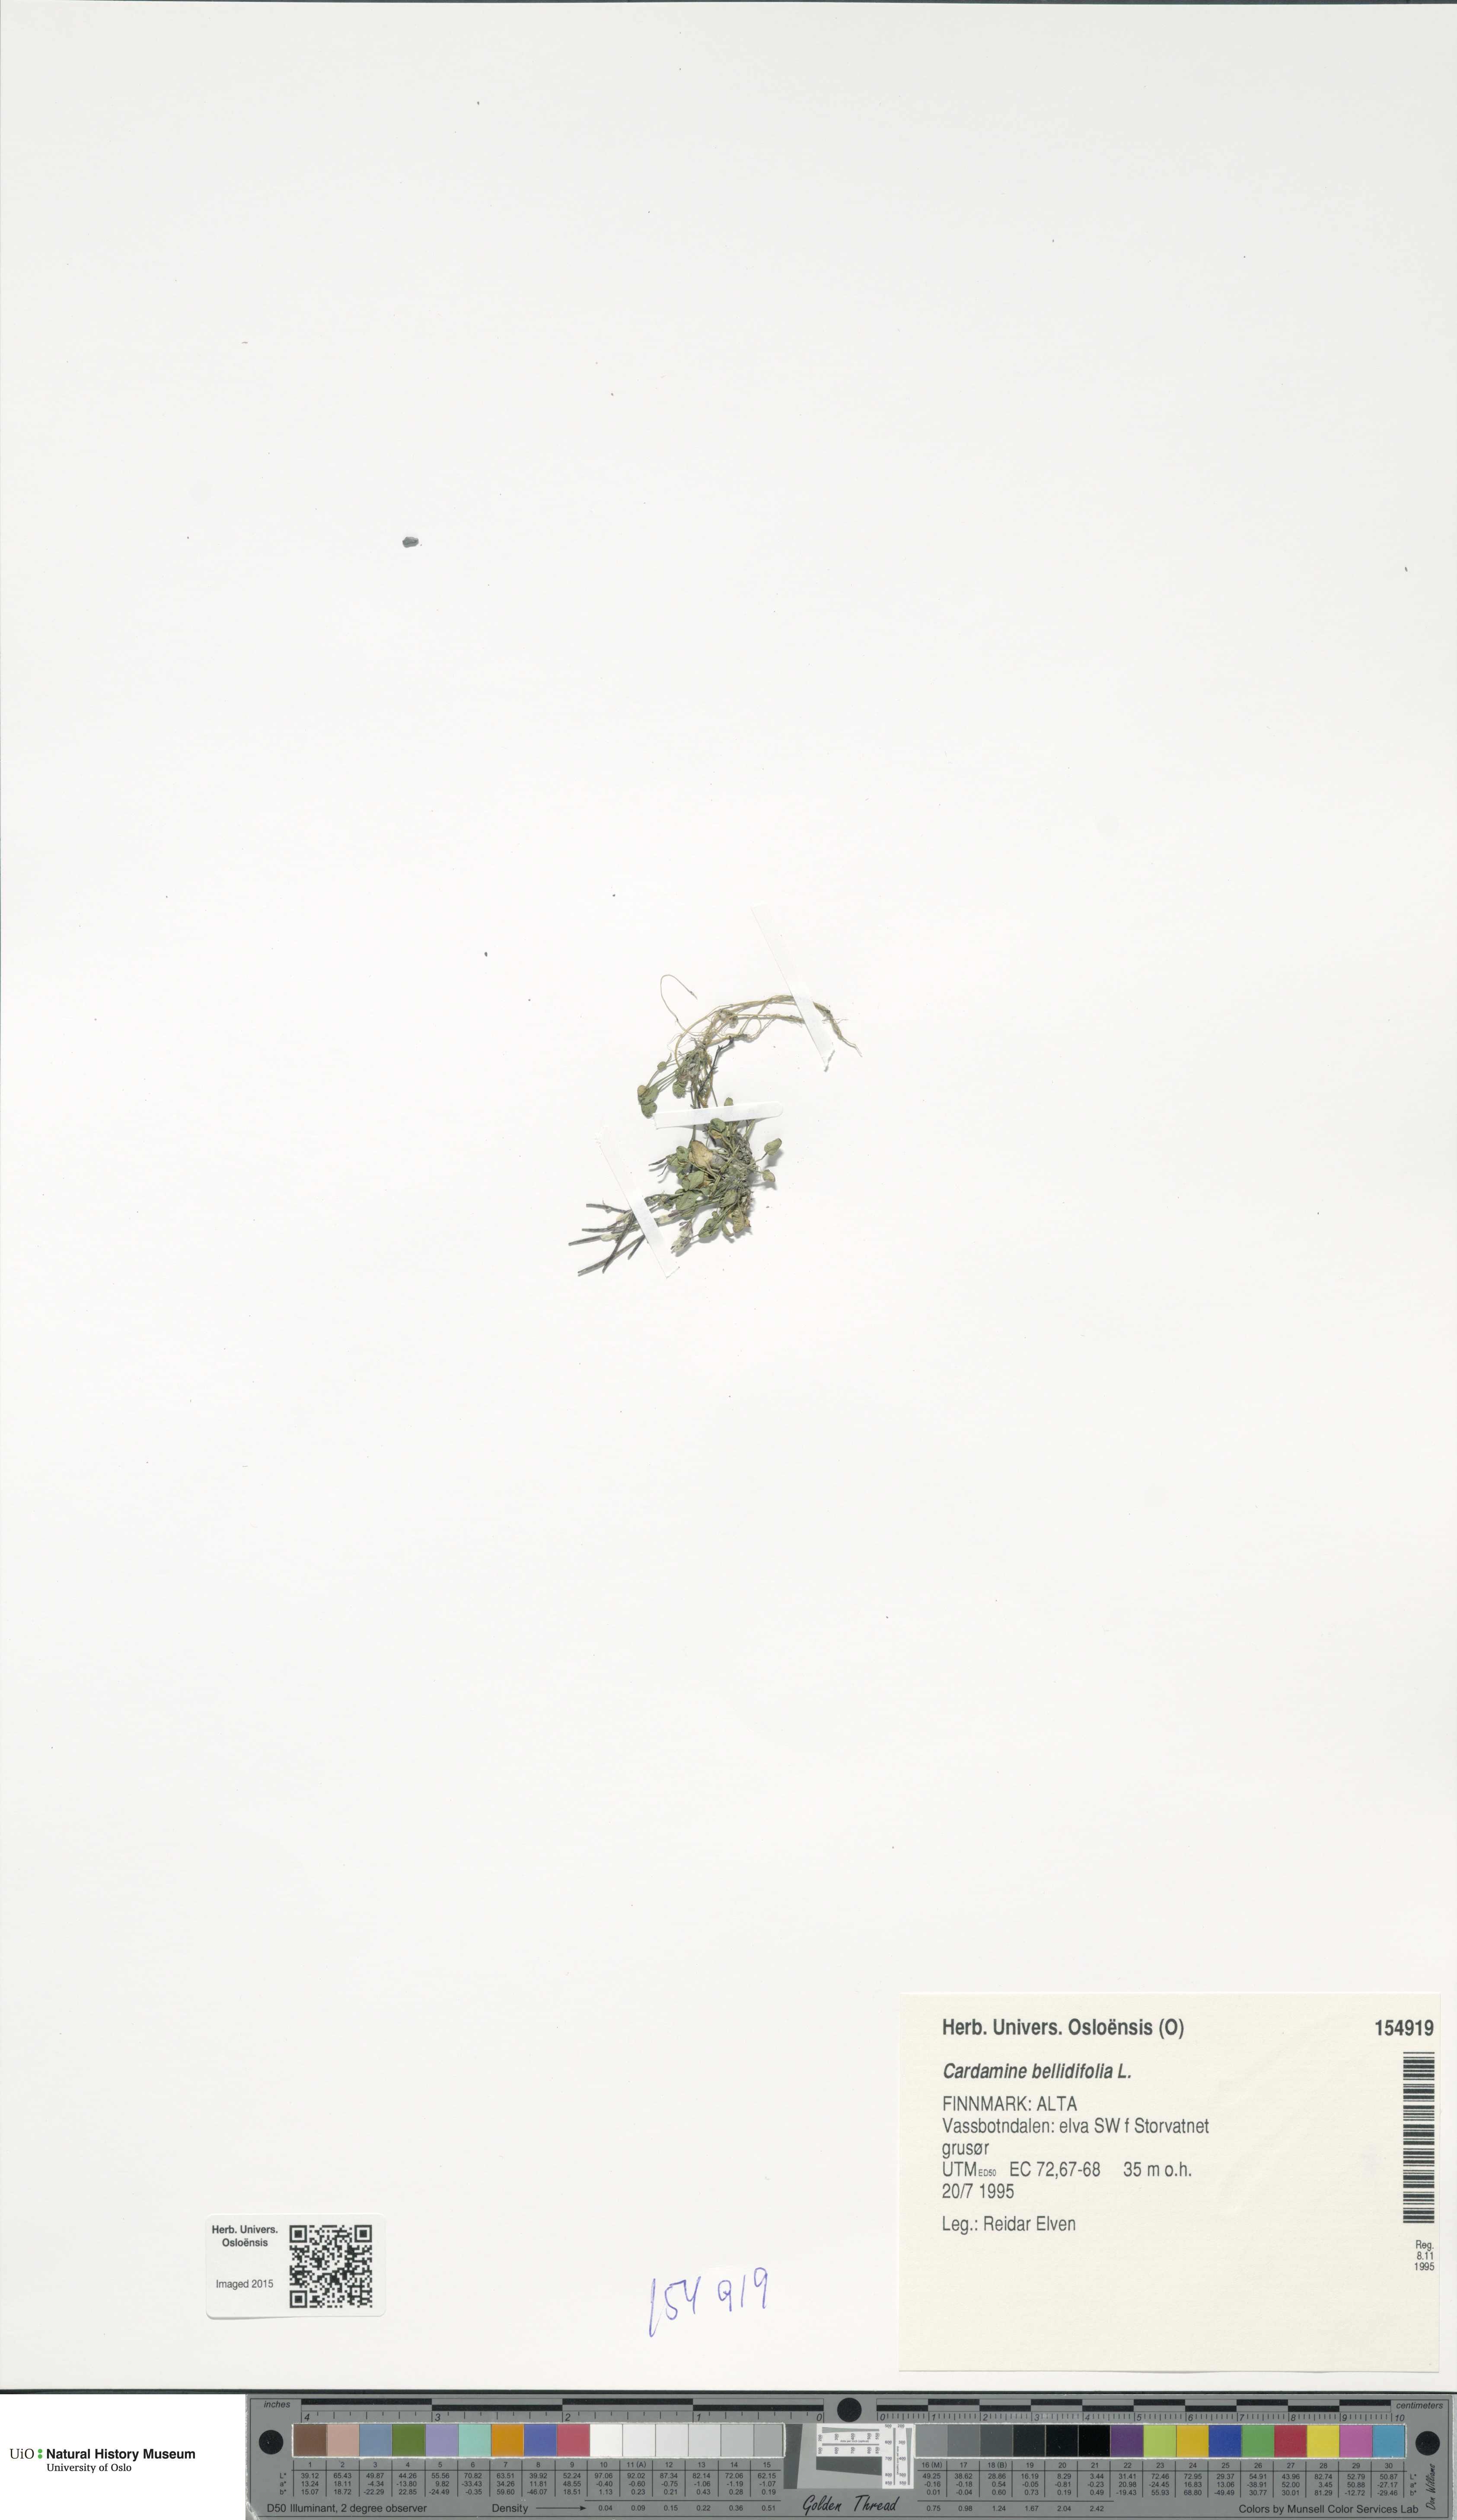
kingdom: Plantae
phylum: Tracheophyta
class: Magnoliopsida
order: Brassicales
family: Brassicaceae
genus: Cardamine
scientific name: Cardamine bellidifolia
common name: Alpine bittercress
